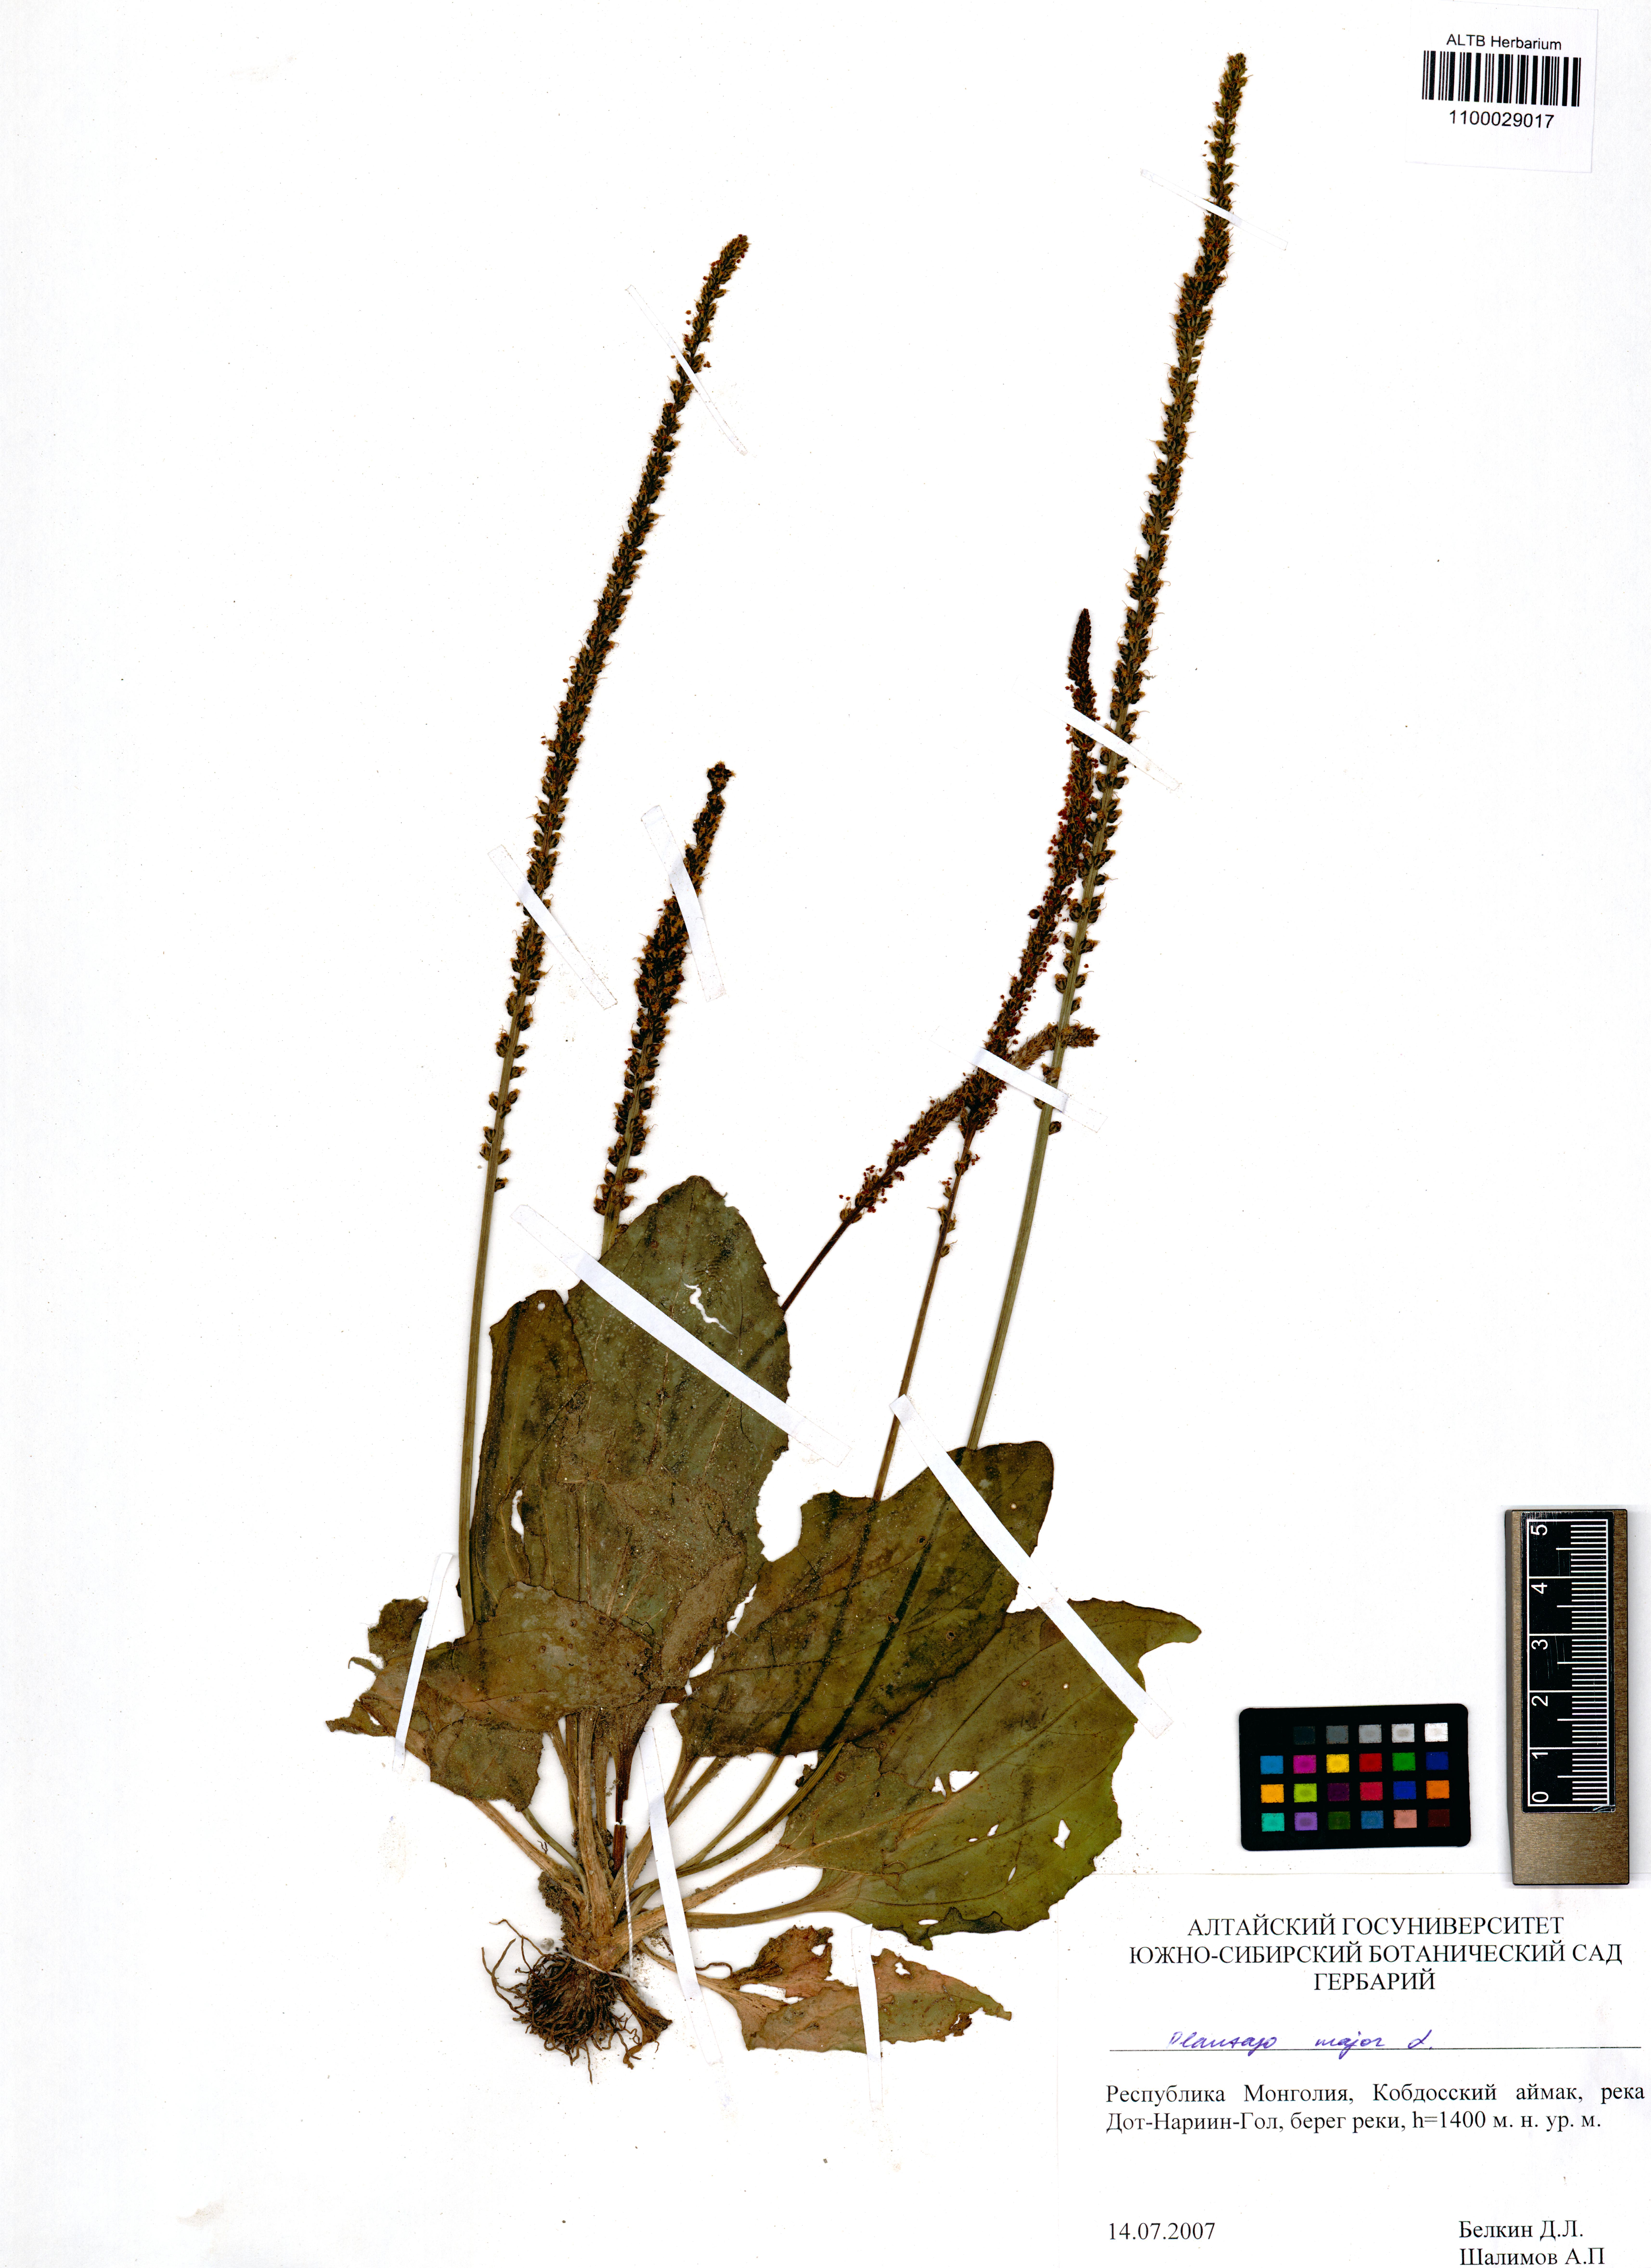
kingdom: Plantae
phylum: Tracheophyta
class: Magnoliopsida
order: Lamiales
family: Plantaginaceae
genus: Plantago
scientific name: Plantago major
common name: Common plantain
